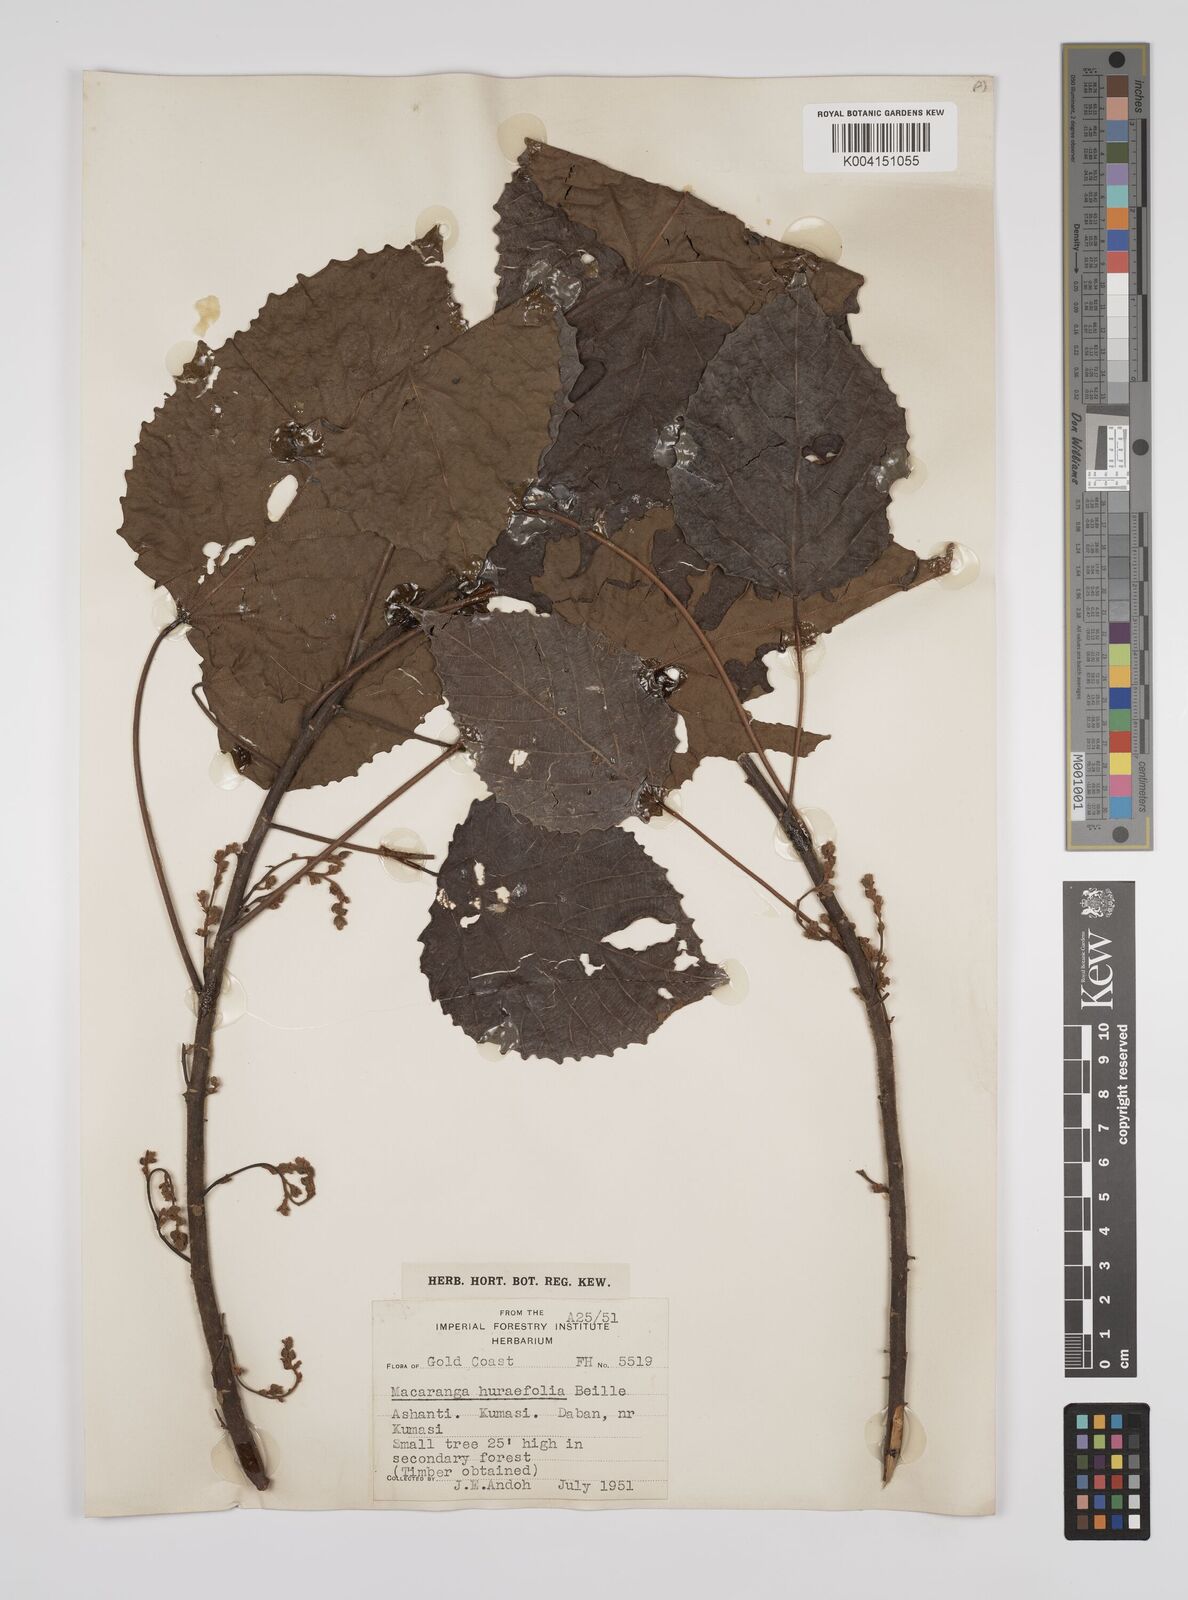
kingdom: Plantae
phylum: Tracheophyta
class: Magnoliopsida
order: Malpighiales
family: Euphorbiaceae
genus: Macaranga
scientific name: Macaranga hurifolia
